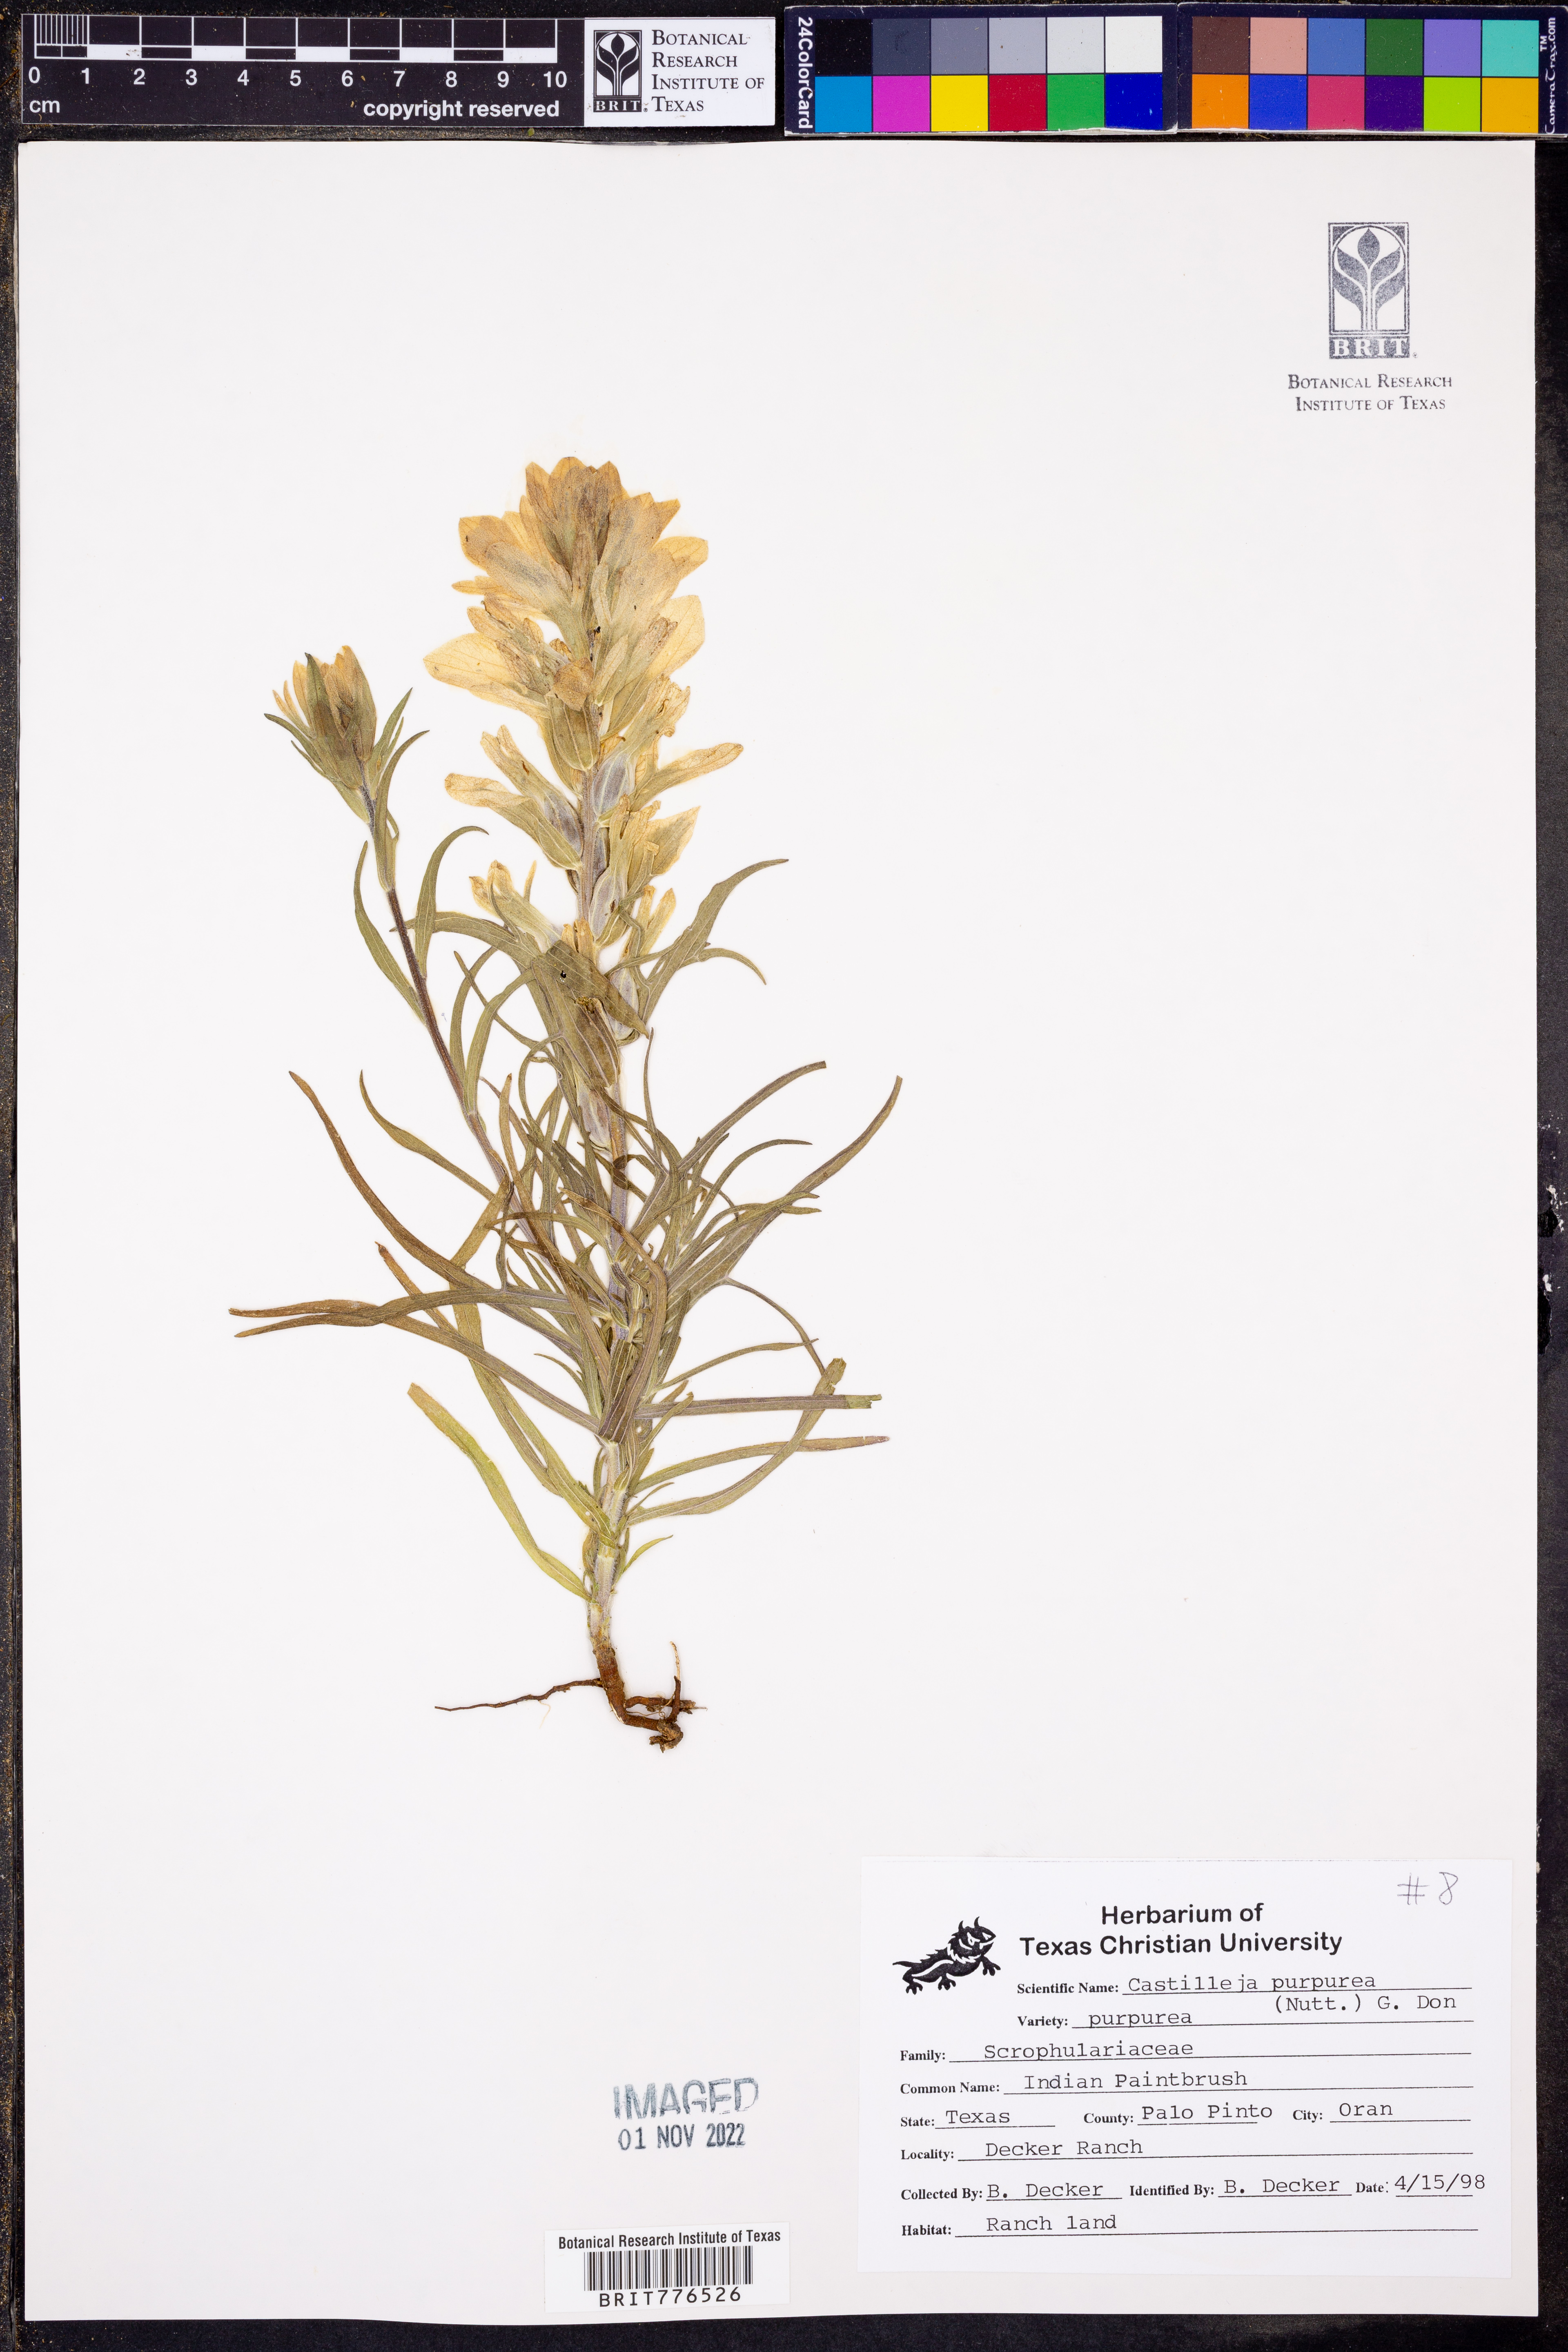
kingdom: Plantae
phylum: Tracheophyta
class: Magnoliopsida
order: Lamiales
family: Orobanchaceae
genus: Castilleja
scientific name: Castilleja purpurea
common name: Plains paintbrush
